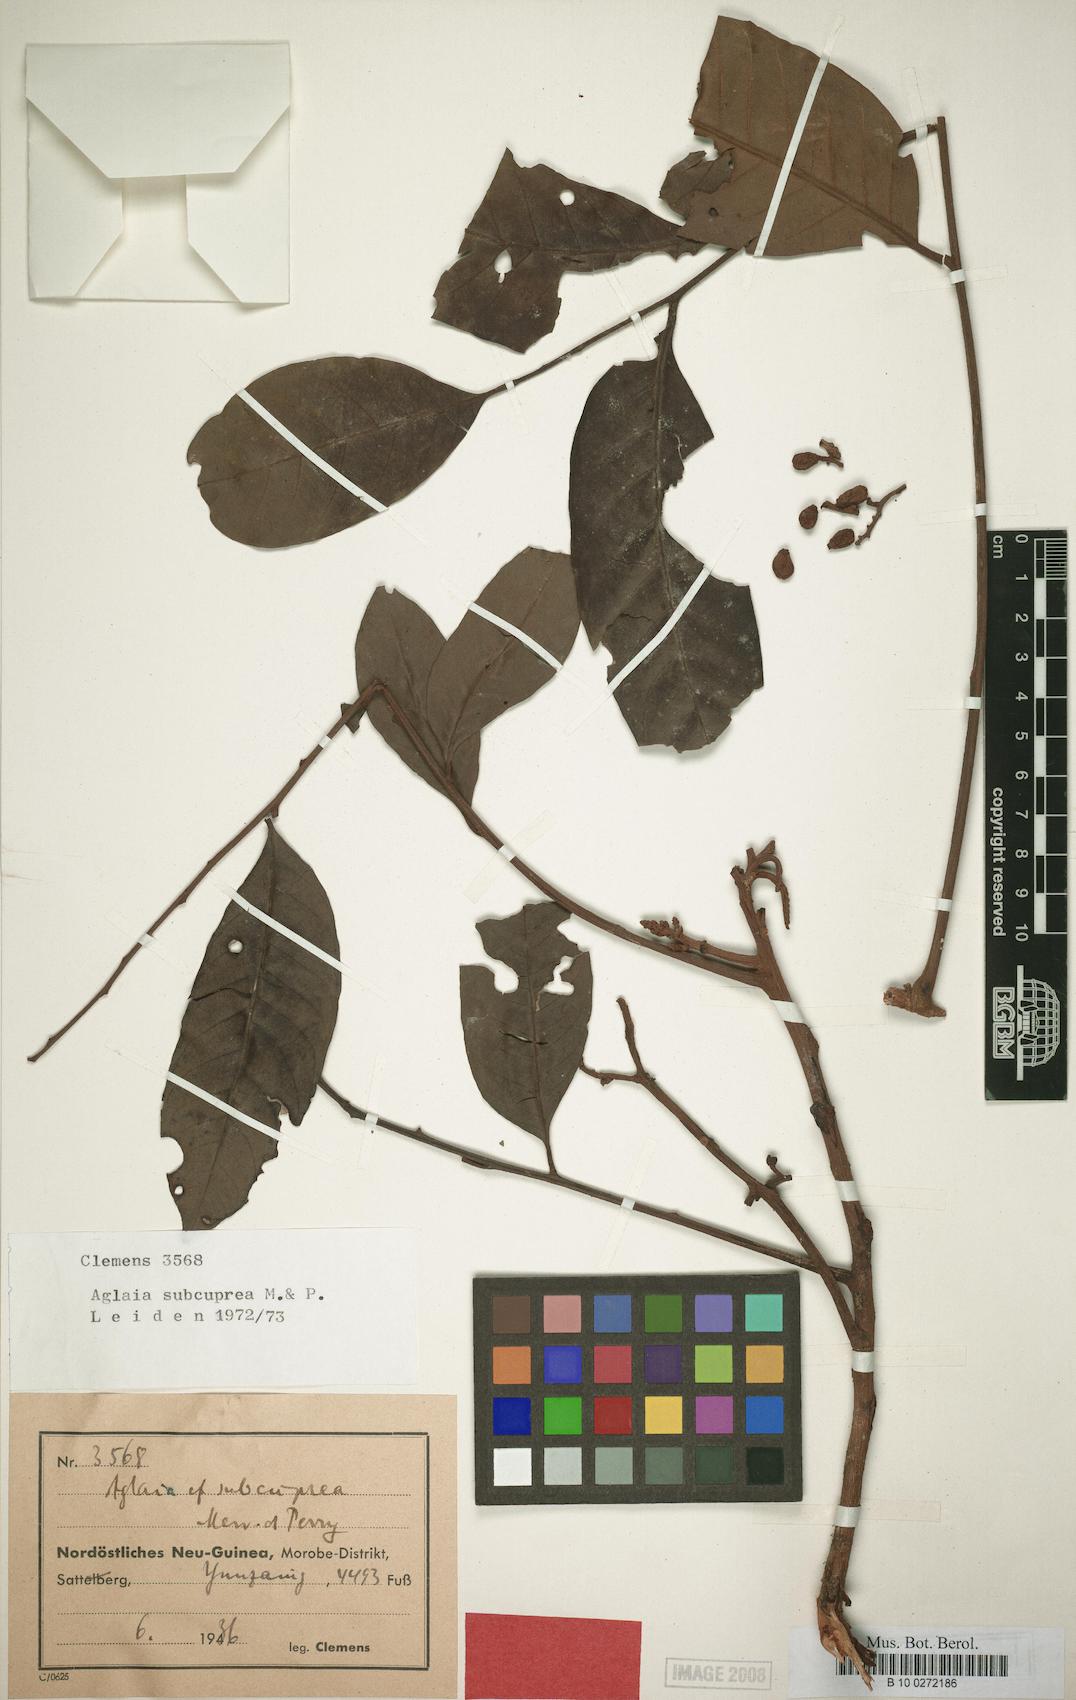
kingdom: Plantae
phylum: Tracheophyta
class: Magnoliopsida
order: Sapindales
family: Meliaceae
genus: Aglaia
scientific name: Aglaia subcuprea
